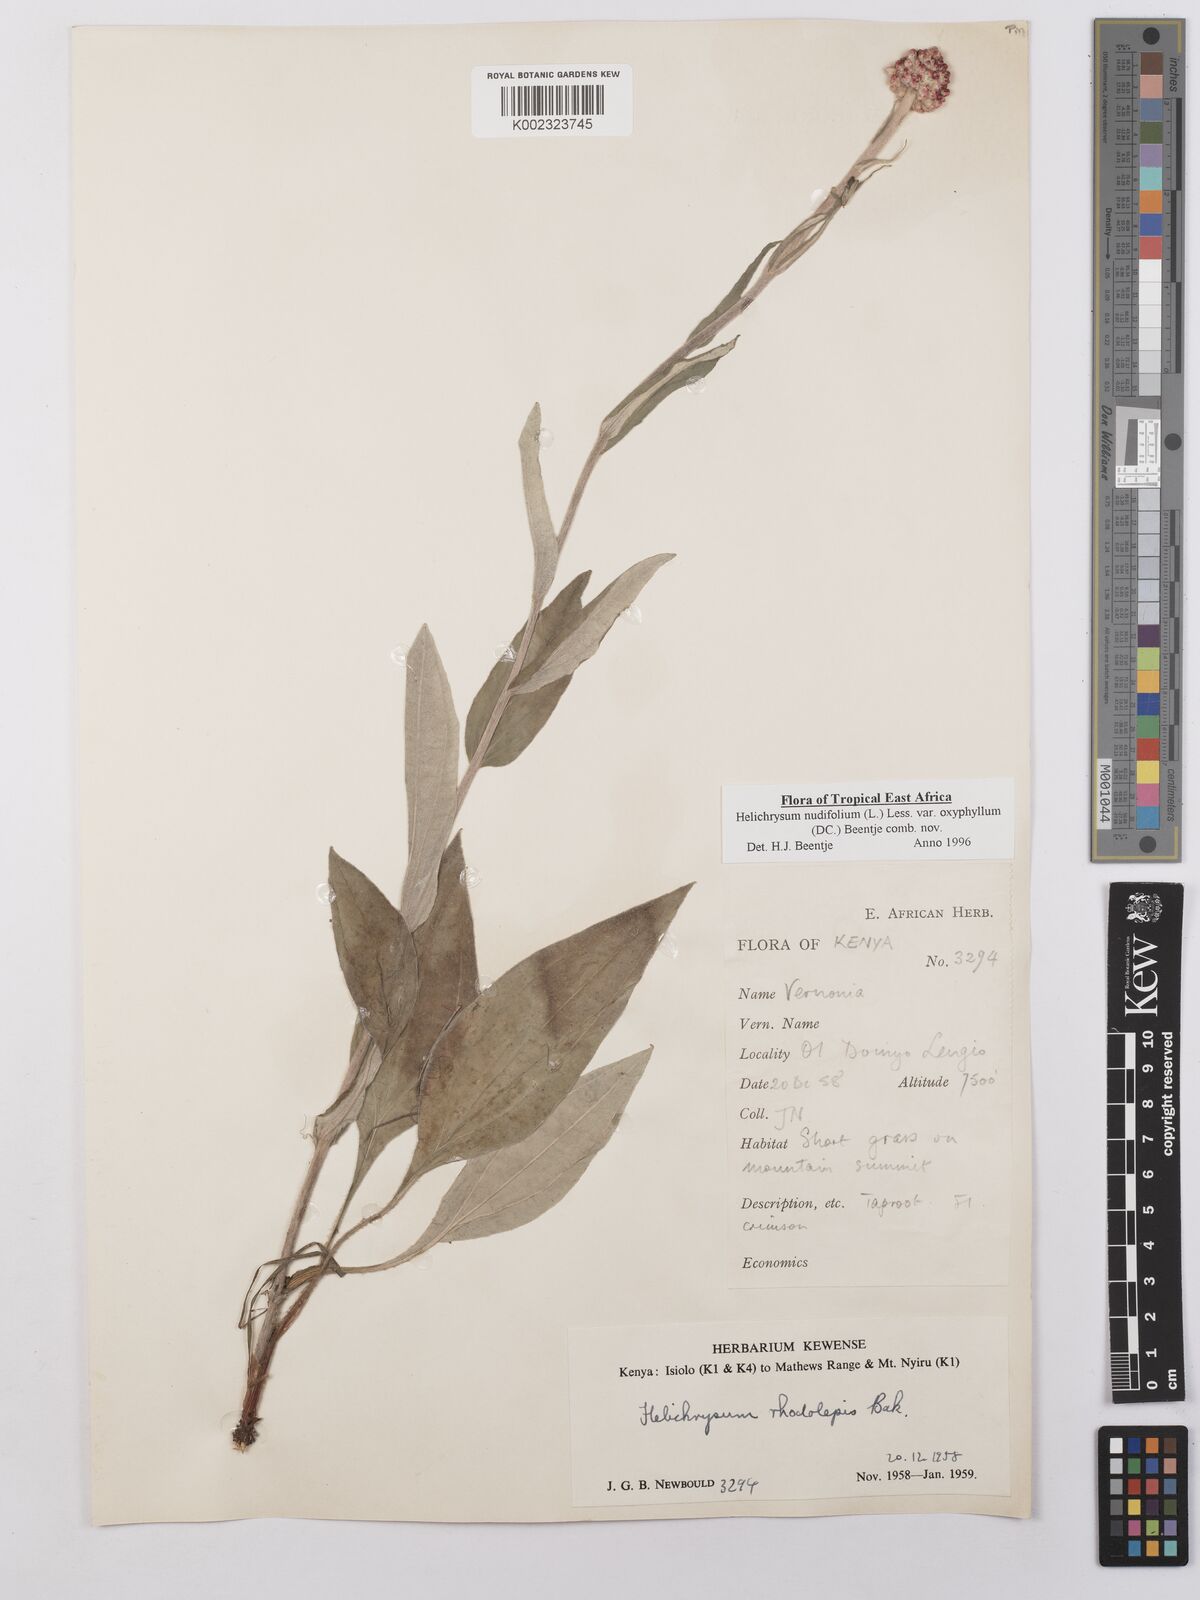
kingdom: Plantae
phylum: Tracheophyta
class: Magnoliopsida
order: Asterales
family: Asteraceae
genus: Helichrysum
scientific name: Helichrysum nudifolium
